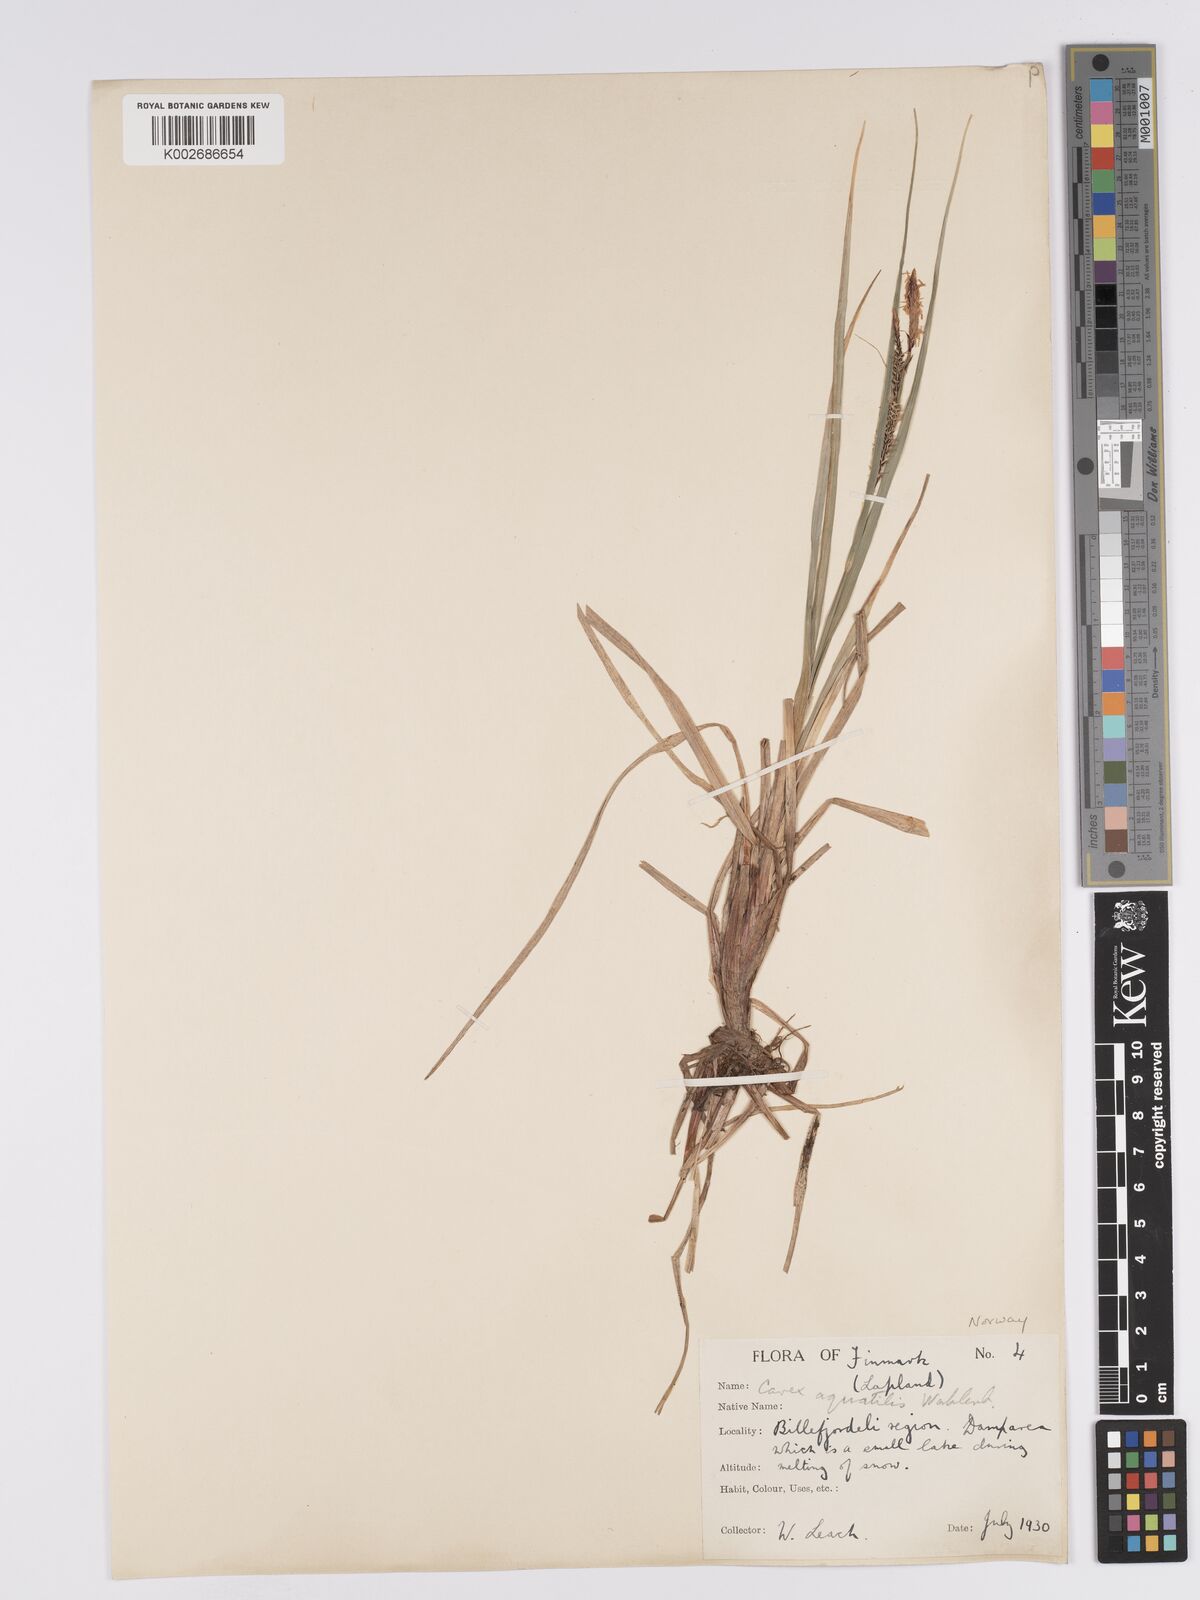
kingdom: Plantae
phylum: Tracheophyta
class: Liliopsida
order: Poales
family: Cyperaceae
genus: Carex
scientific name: Carex aquatilis
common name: Water sedge
